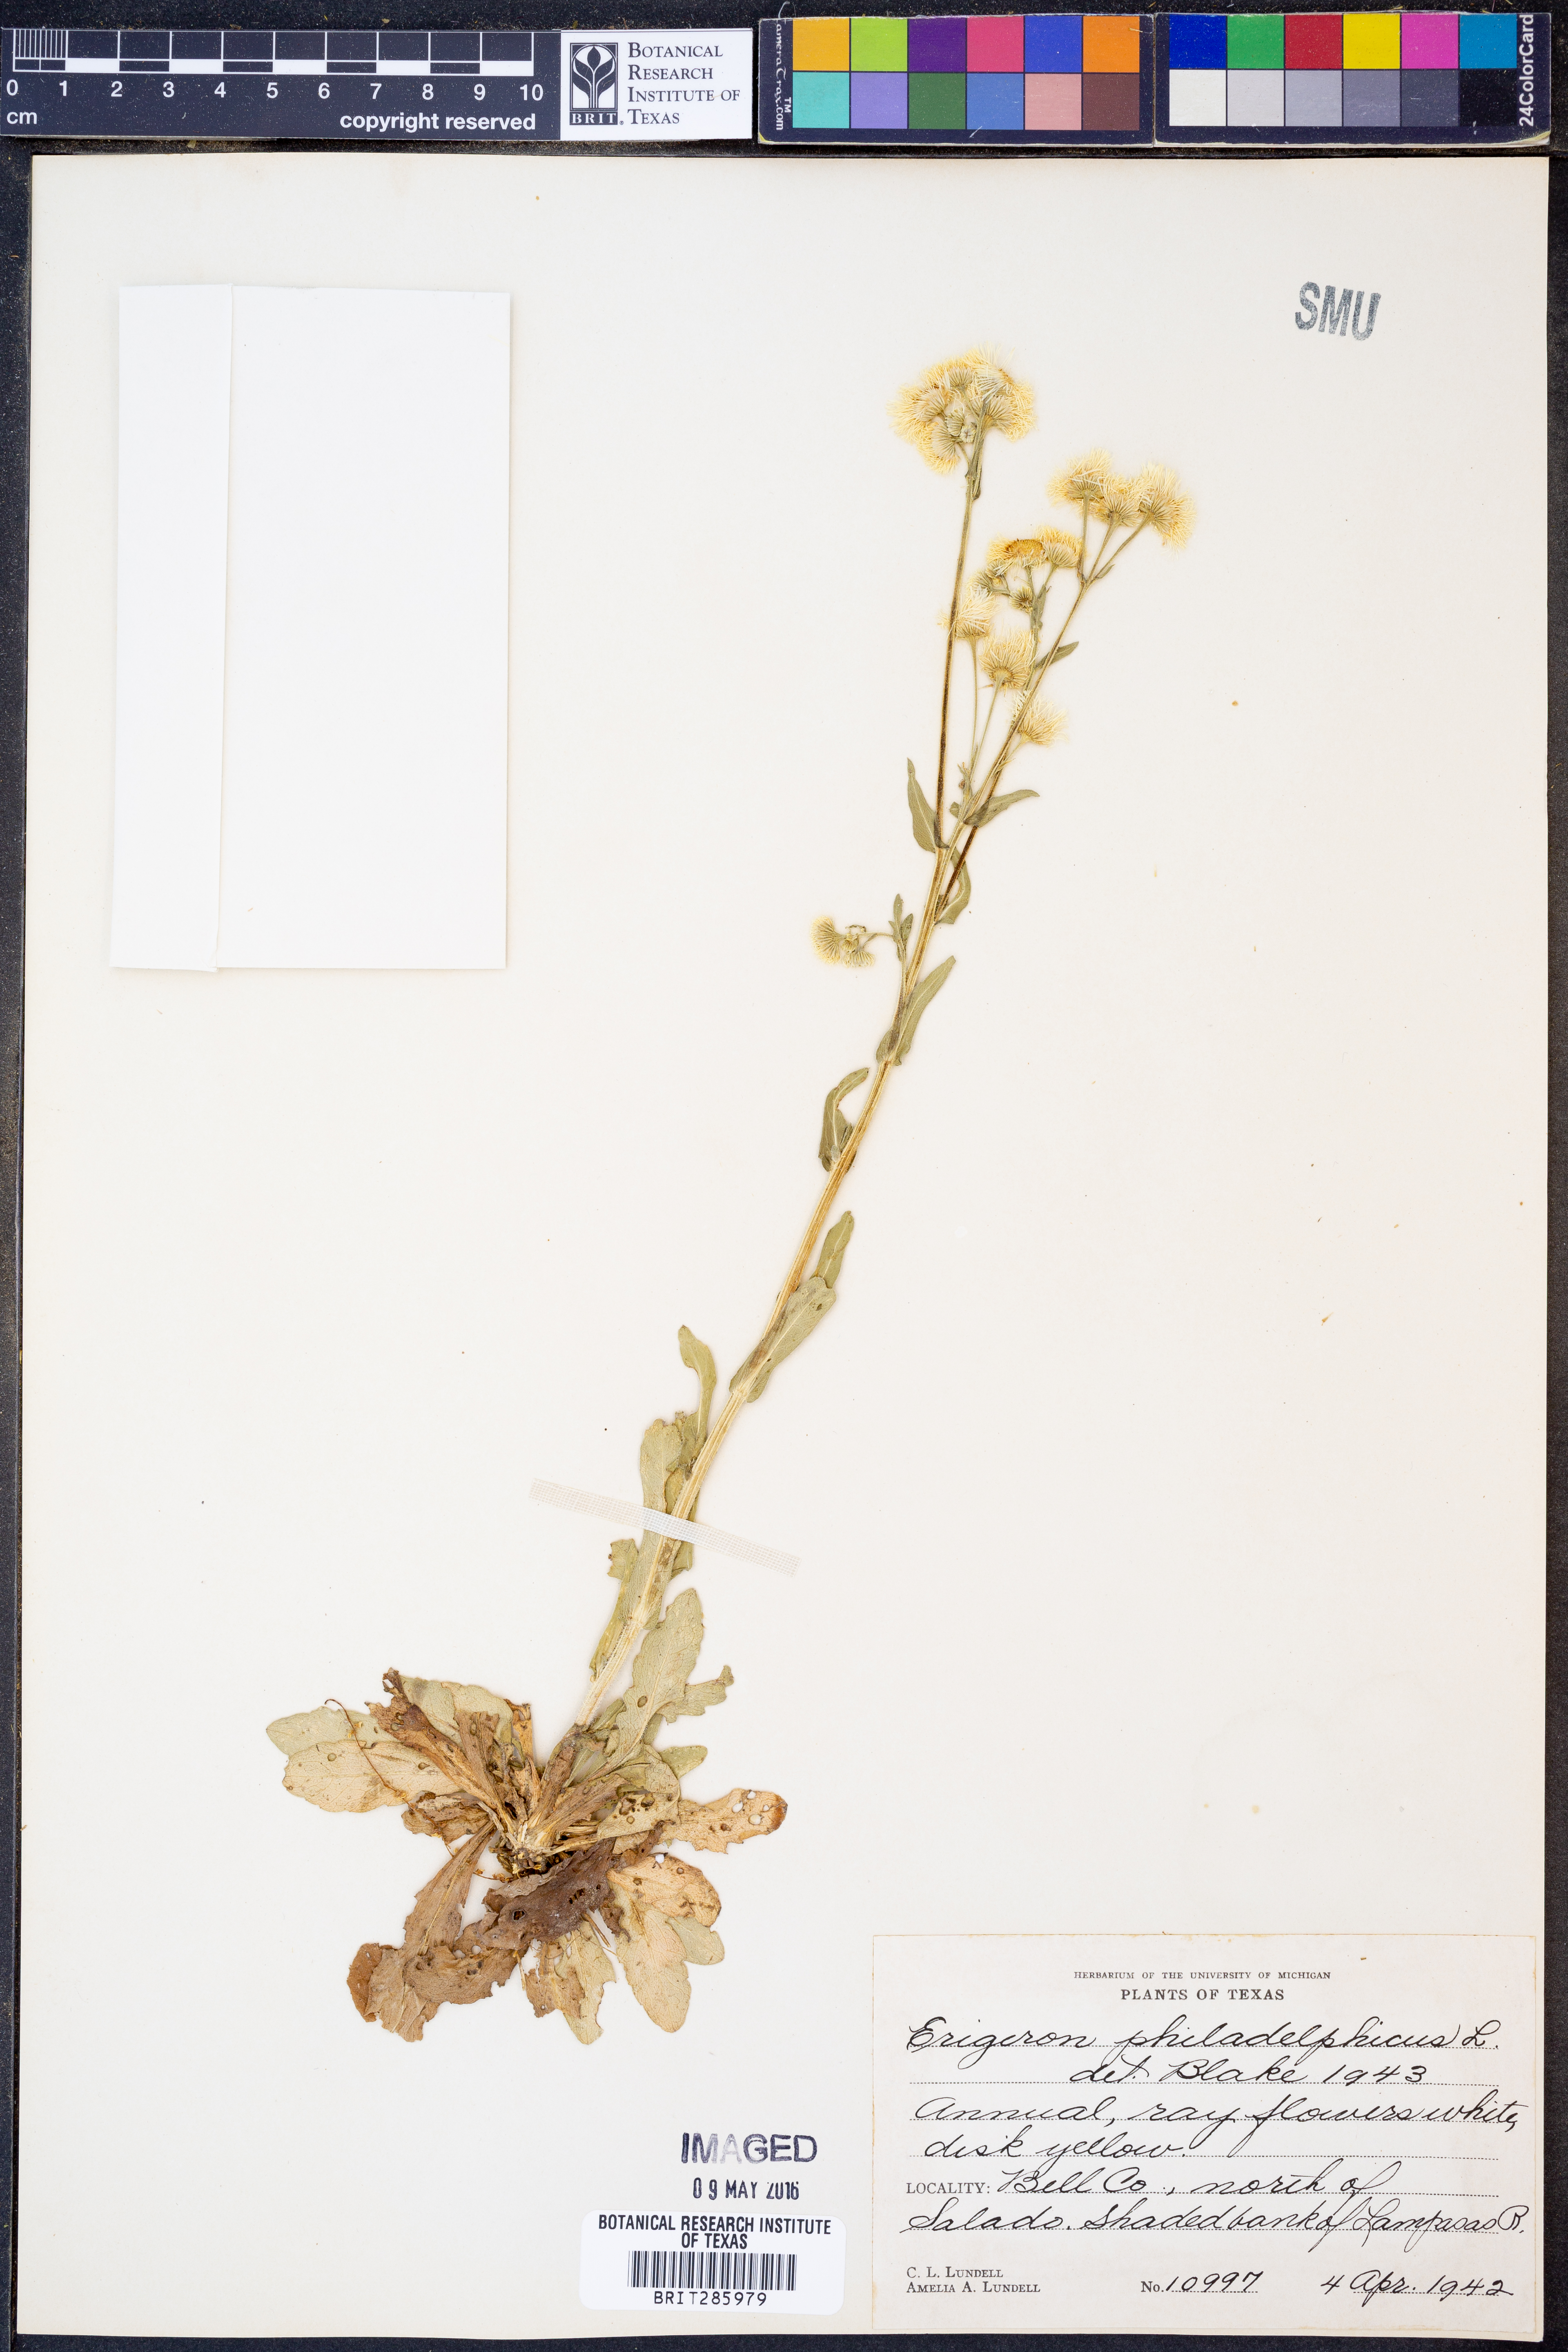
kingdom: Plantae
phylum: Tracheophyta
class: Magnoliopsida
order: Asterales
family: Asteraceae
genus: Erigeron
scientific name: Erigeron philadelphicus
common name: Robin's-plantain
